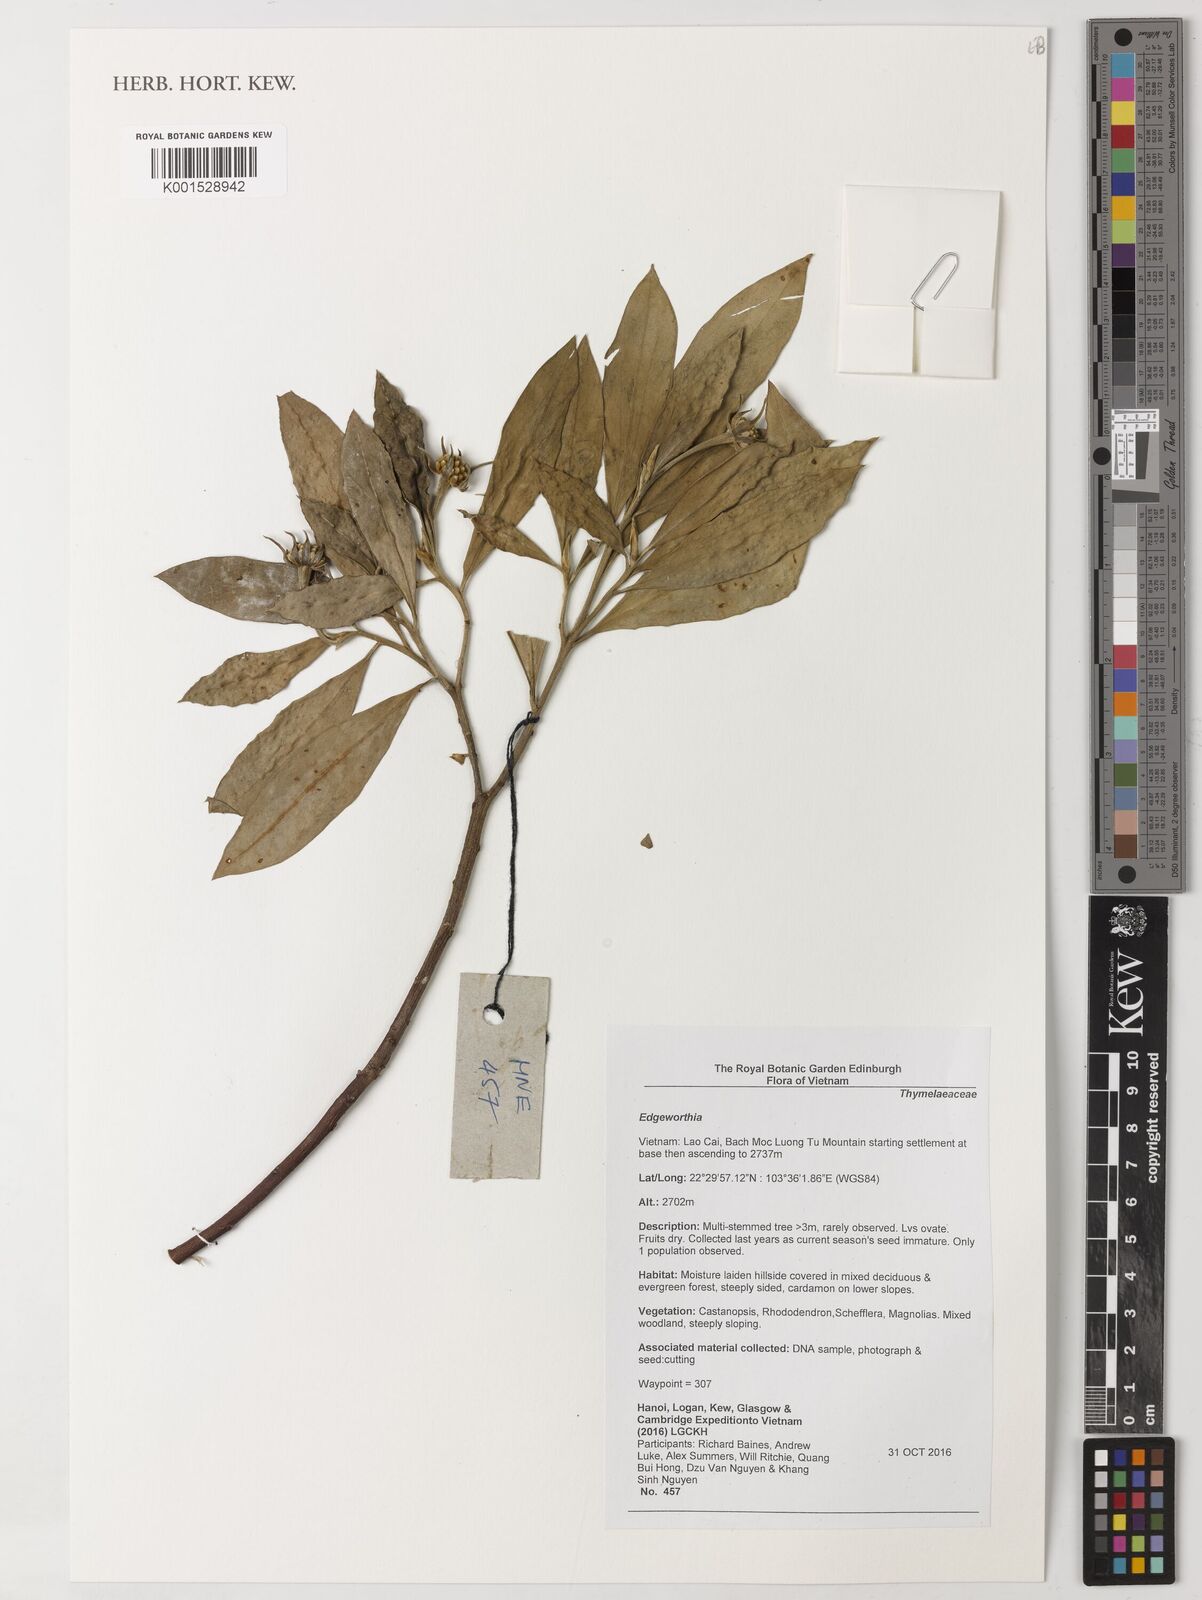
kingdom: Plantae
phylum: Tracheophyta
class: Magnoliopsida
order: Malvales
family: Thymelaeaceae
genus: Edgeworthia
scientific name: Edgeworthia
